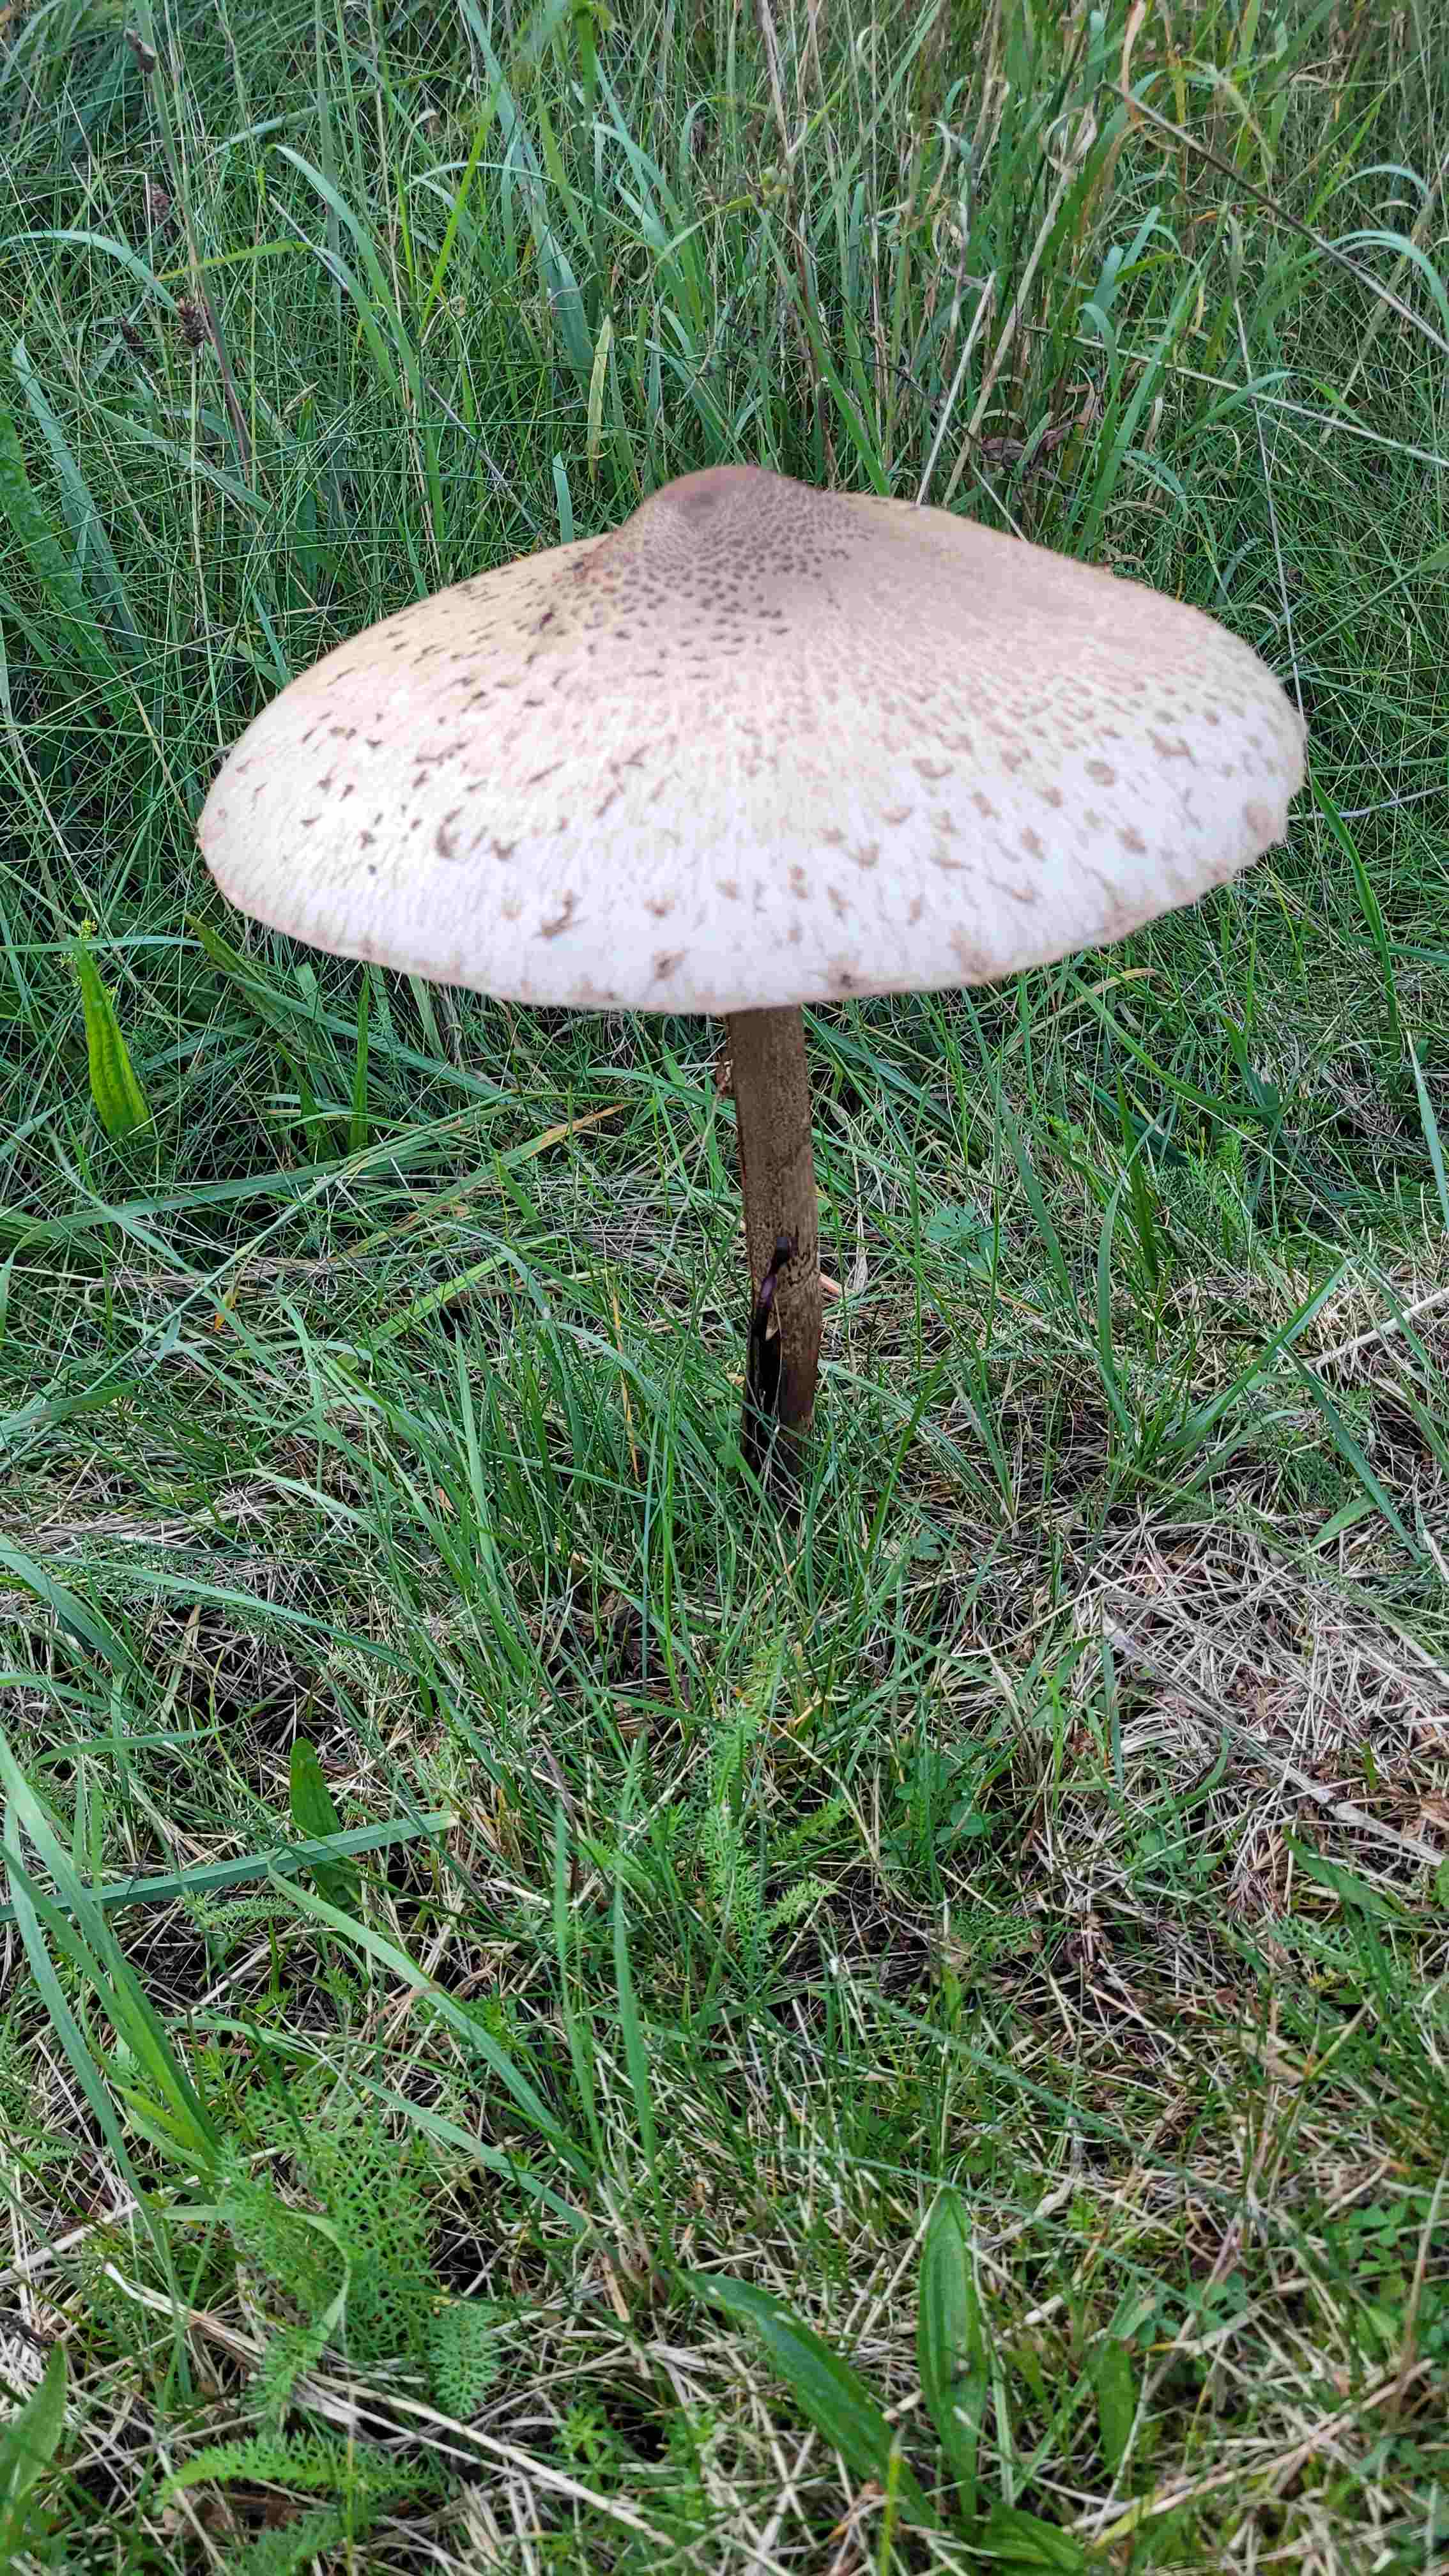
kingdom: Fungi
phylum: Basidiomycota
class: Agaricomycetes
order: Agaricales
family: Agaricaceae
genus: Macrolepiota
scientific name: Macrolepiota procera
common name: stor kæmpeparasolhat
